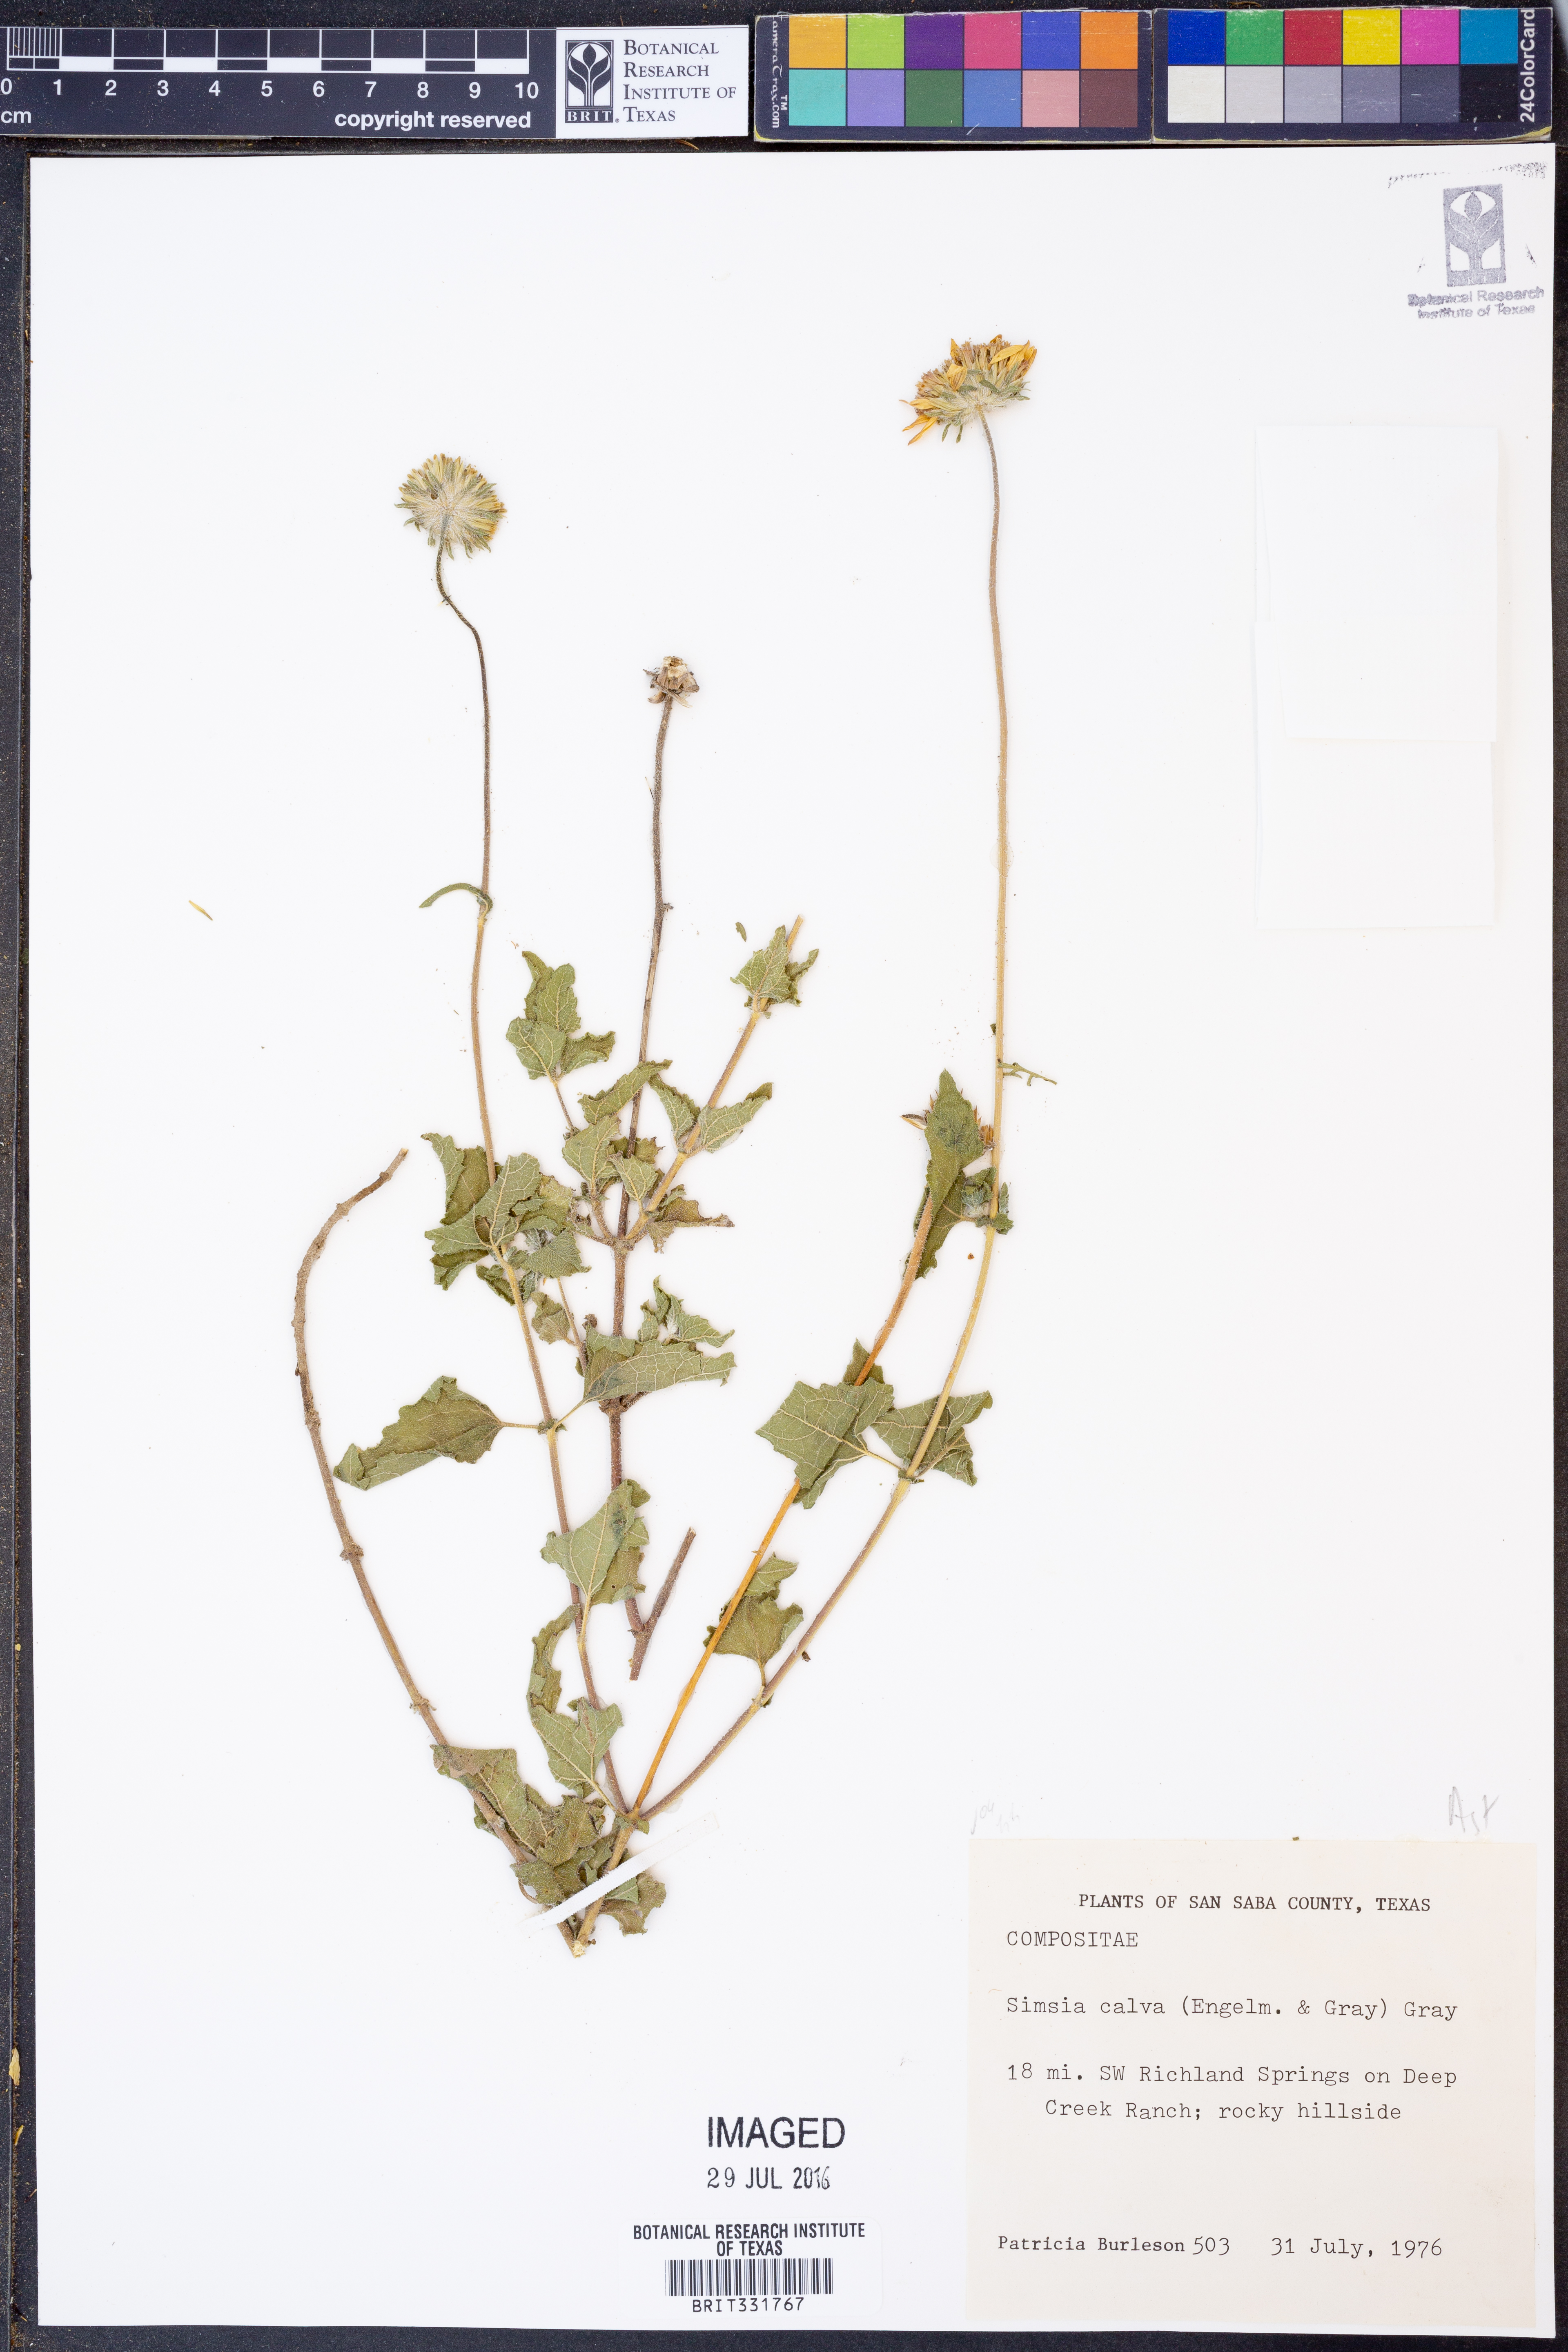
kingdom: Plantae
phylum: Tracheophyta
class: Magnoliopsida
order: Asterales
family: Asteraceae
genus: Simsia
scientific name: Simsia calva
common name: Awnless bush-sunflower
